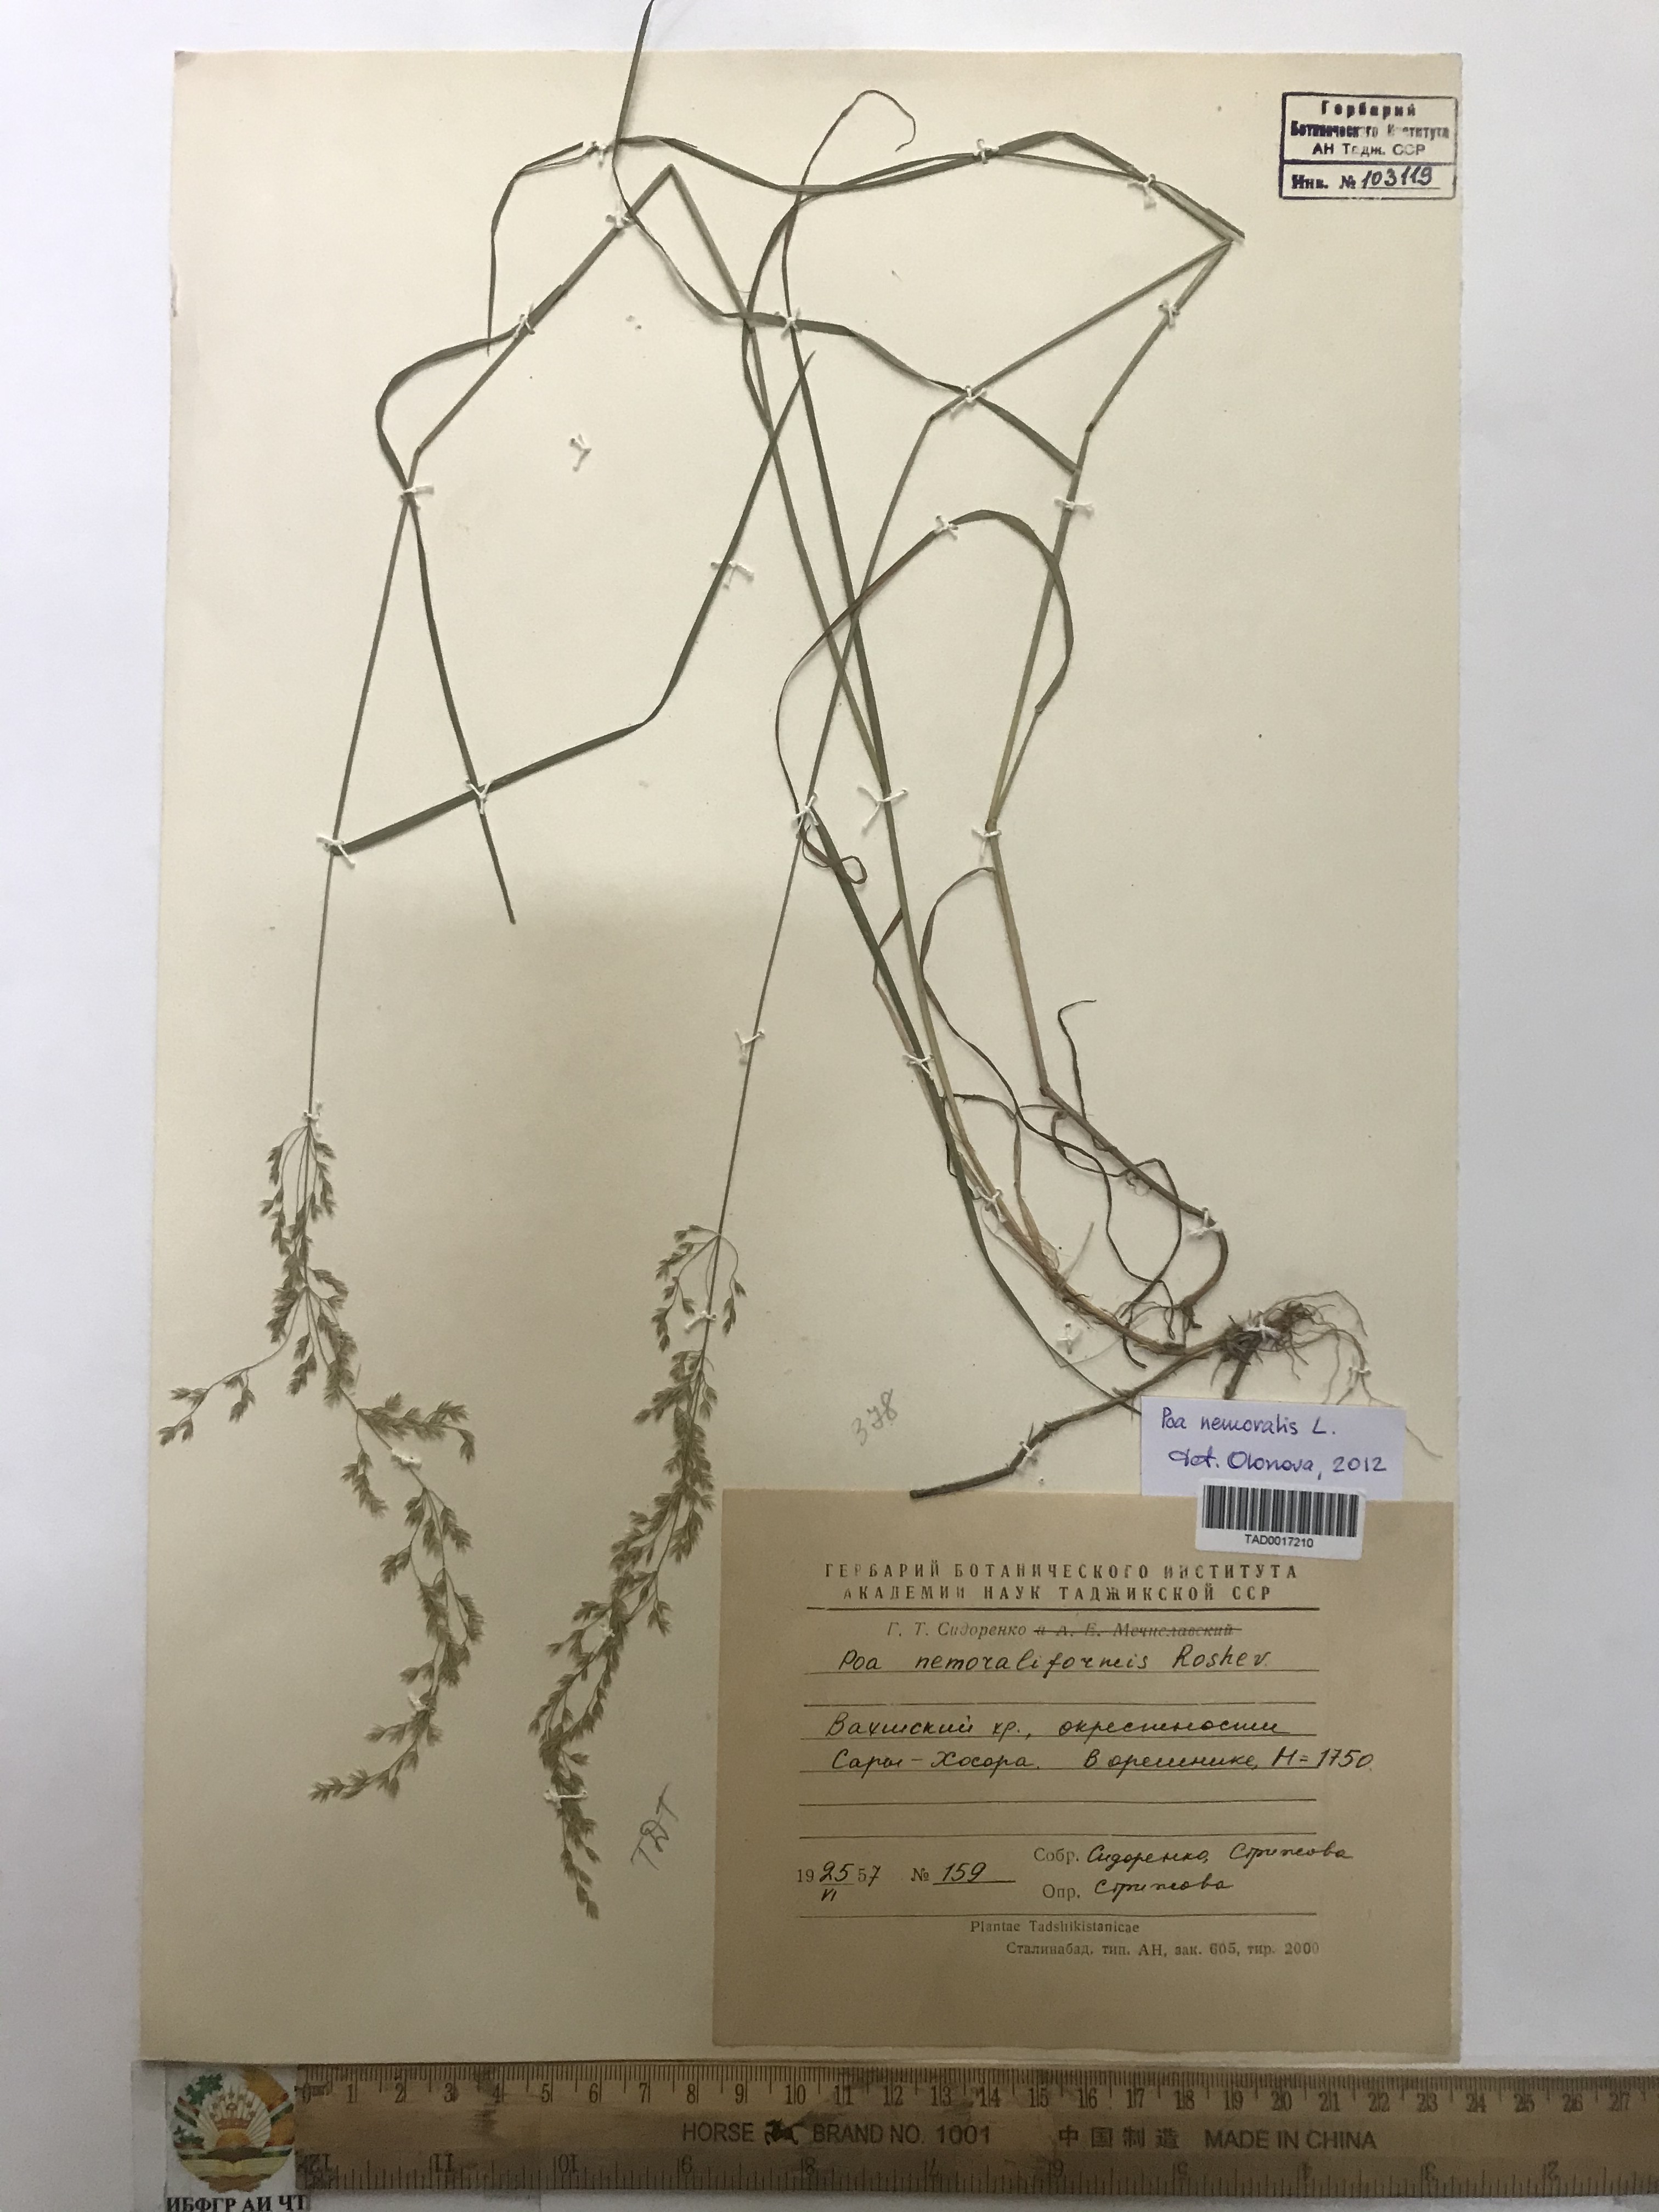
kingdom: Plantae
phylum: Tracheophyta
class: Liliopsida
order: Poales
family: Poaceae
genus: Poa
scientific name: Poa urssulensis
